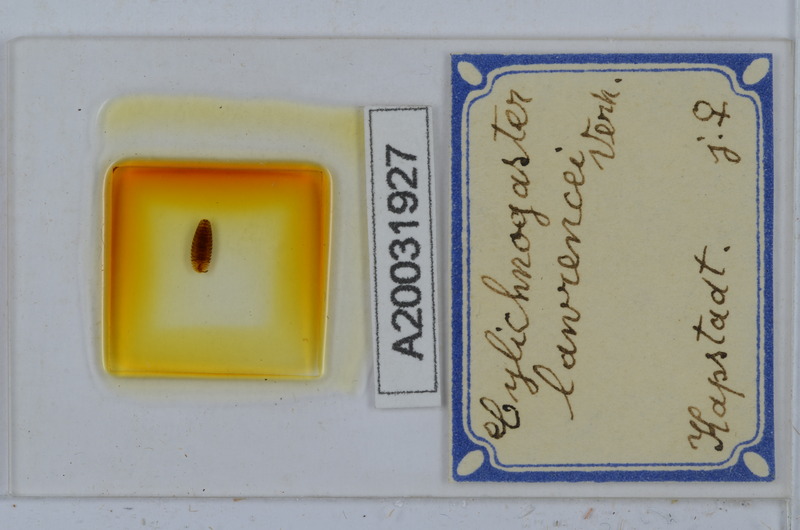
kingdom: Animalia
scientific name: Animalia
